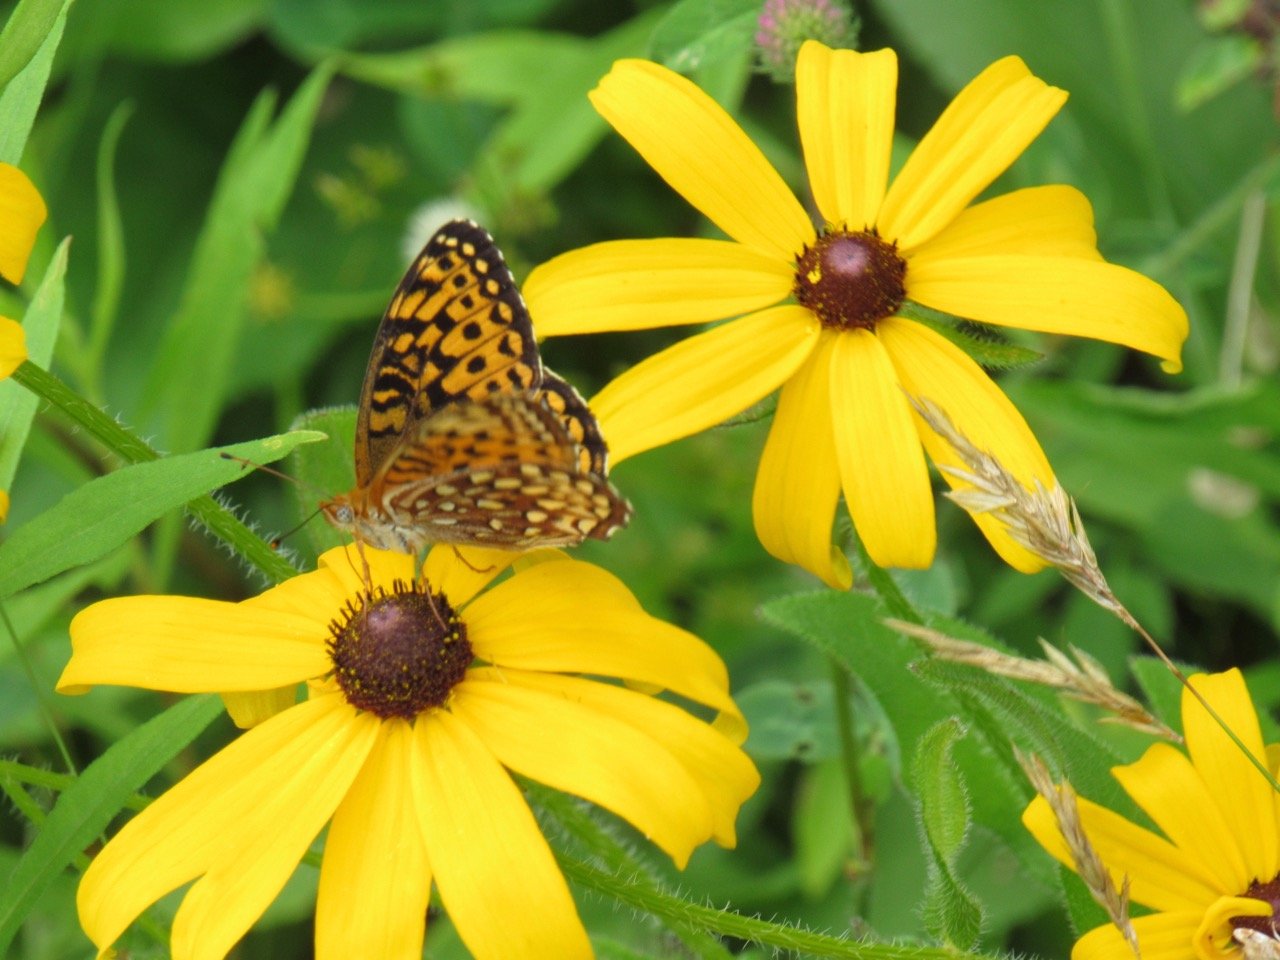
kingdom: Animalia
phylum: Arthropoda
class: Insecta
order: Lepidoptera
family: Nymphalidae
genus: Speyeria
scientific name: Speyeria atlantis
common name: Atlantis Fritillary
